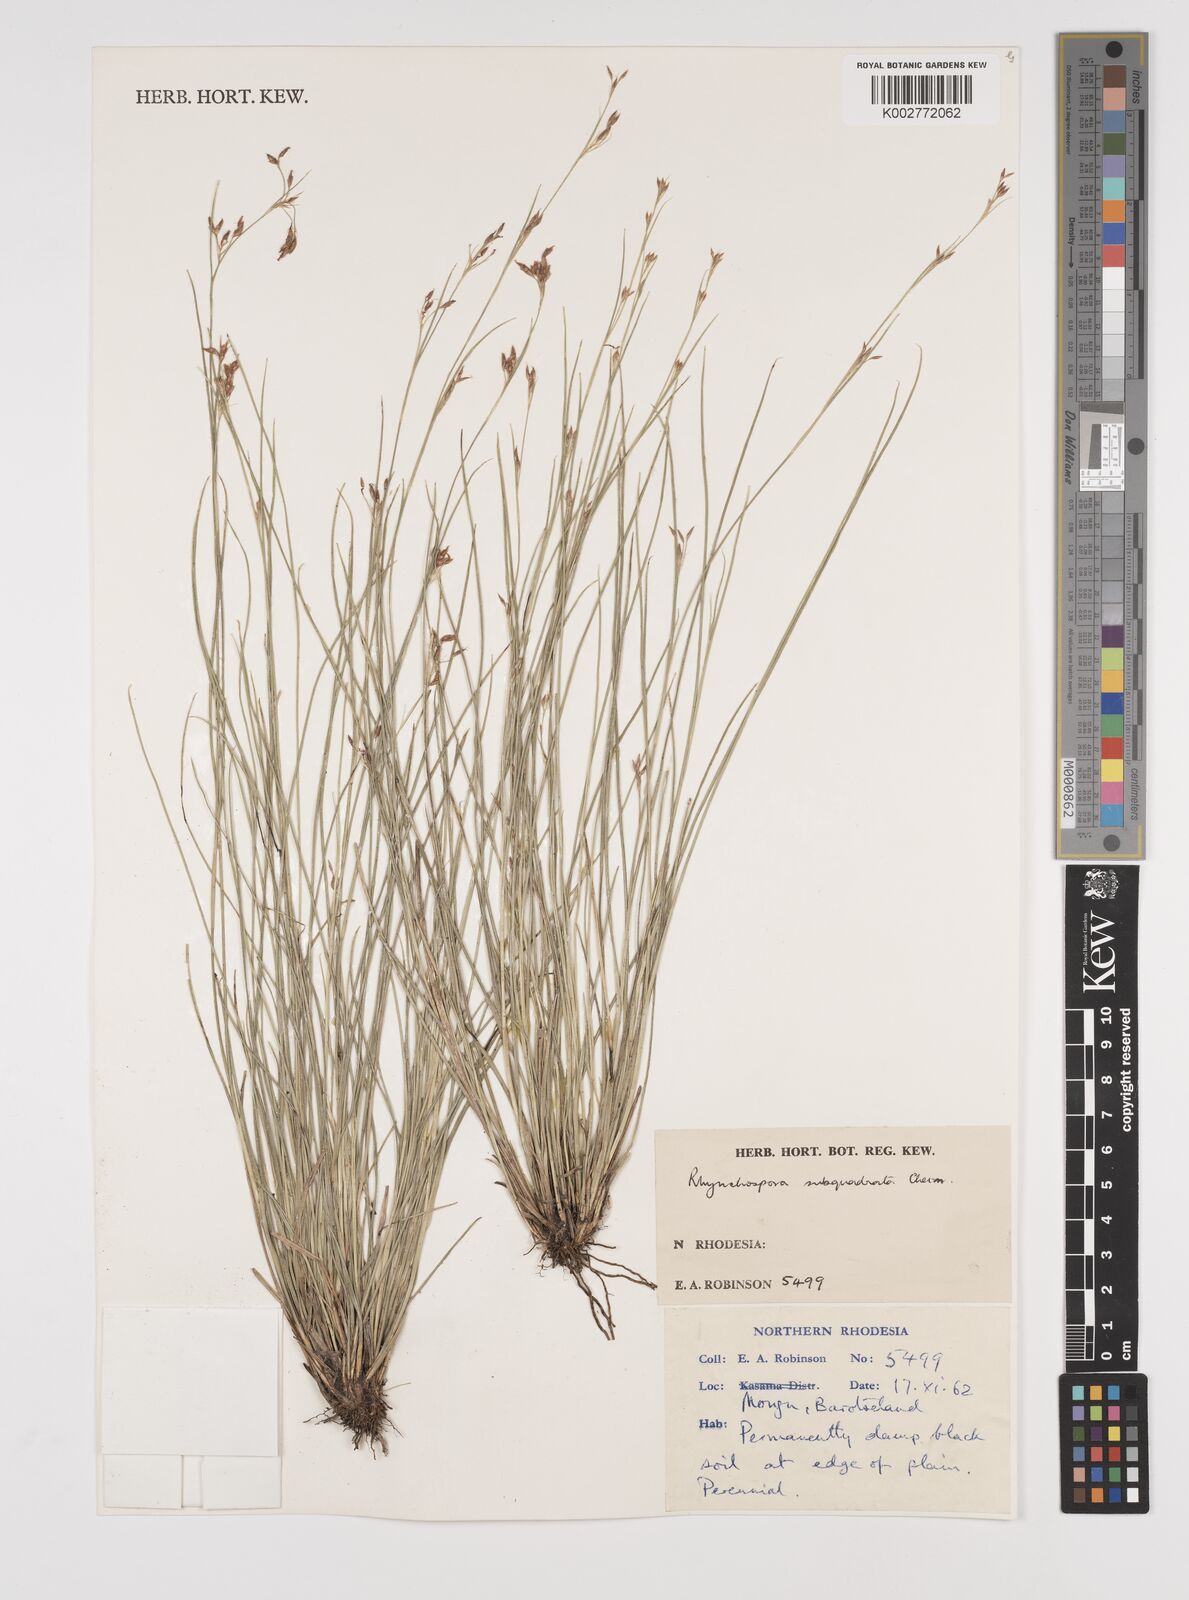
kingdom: Plantae
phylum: Tracheophyta
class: Liliopsida
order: Poales
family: Cyperaceae
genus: Rhynchospora
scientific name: Rhynchospora gracillima
